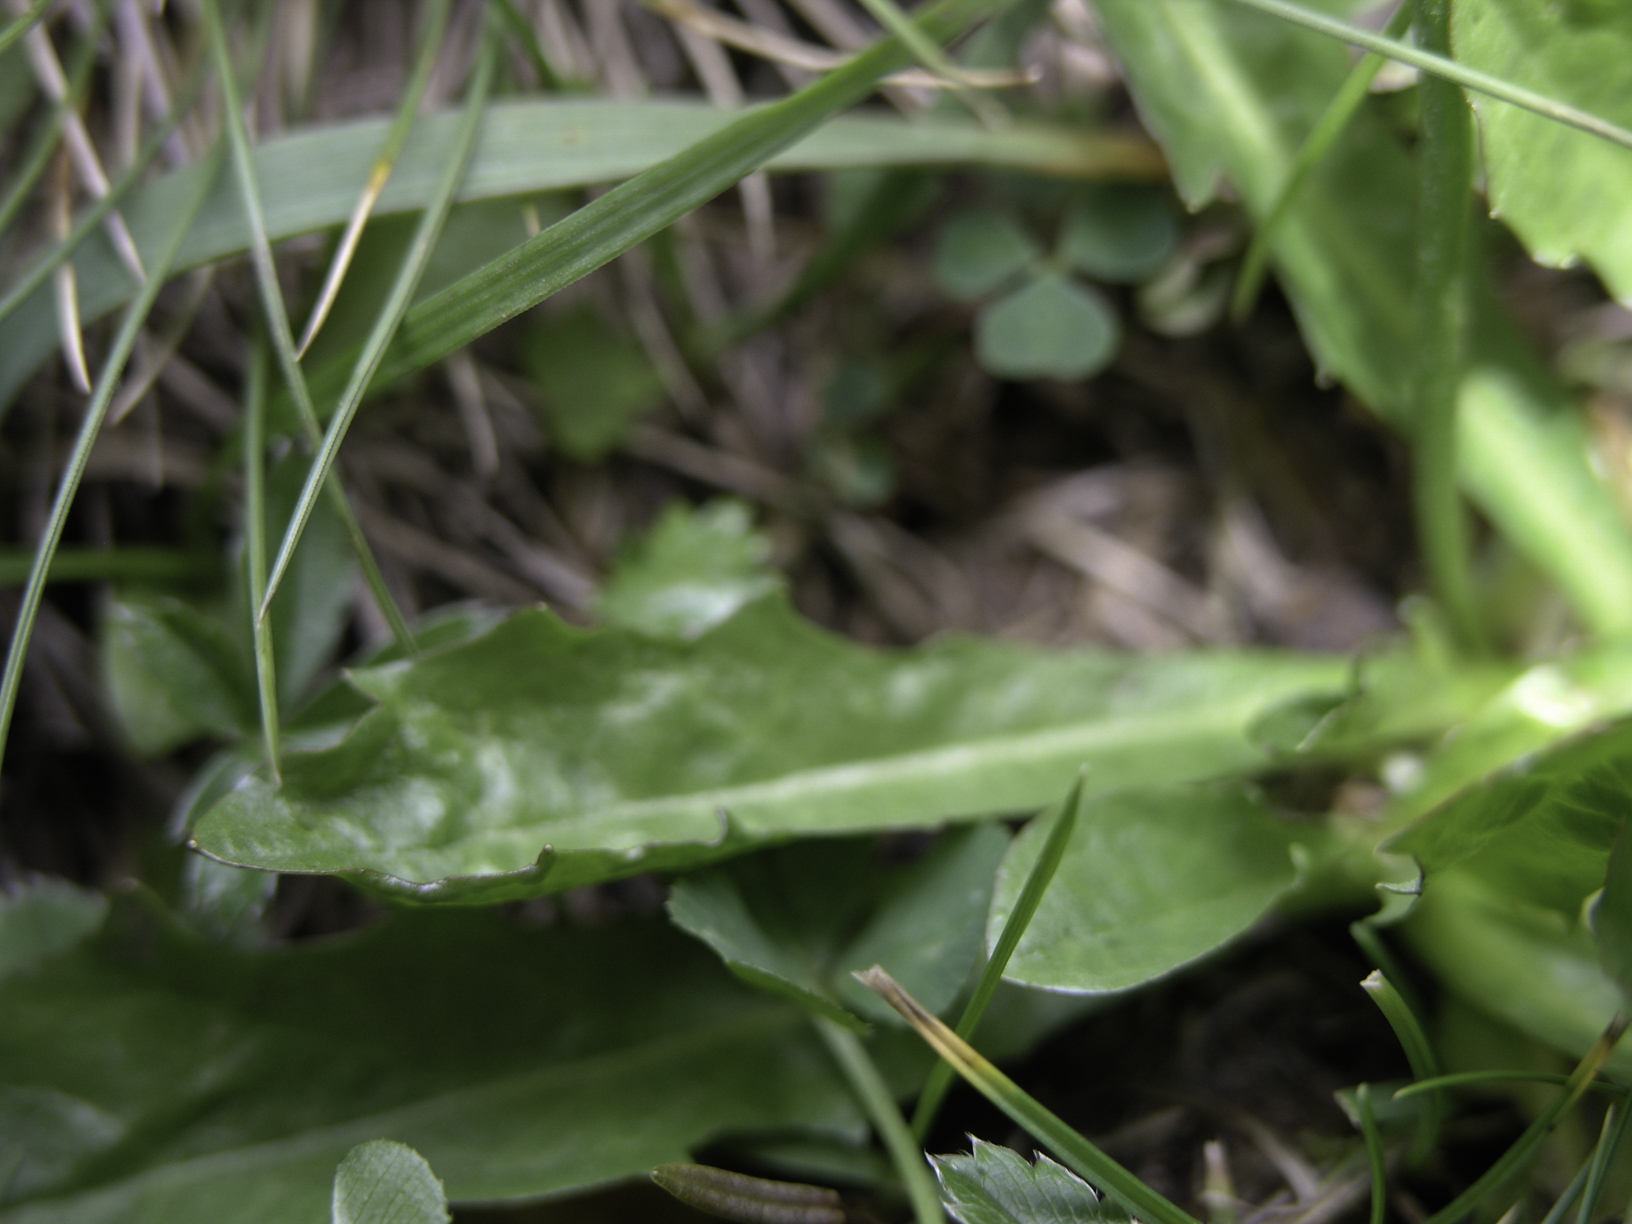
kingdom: Plantae
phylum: Tracheophyta
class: Magnoliopsida
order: Asterales
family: Asteraceae
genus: Crepis
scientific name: Crepis aurea
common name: Golden hawk's-beard
